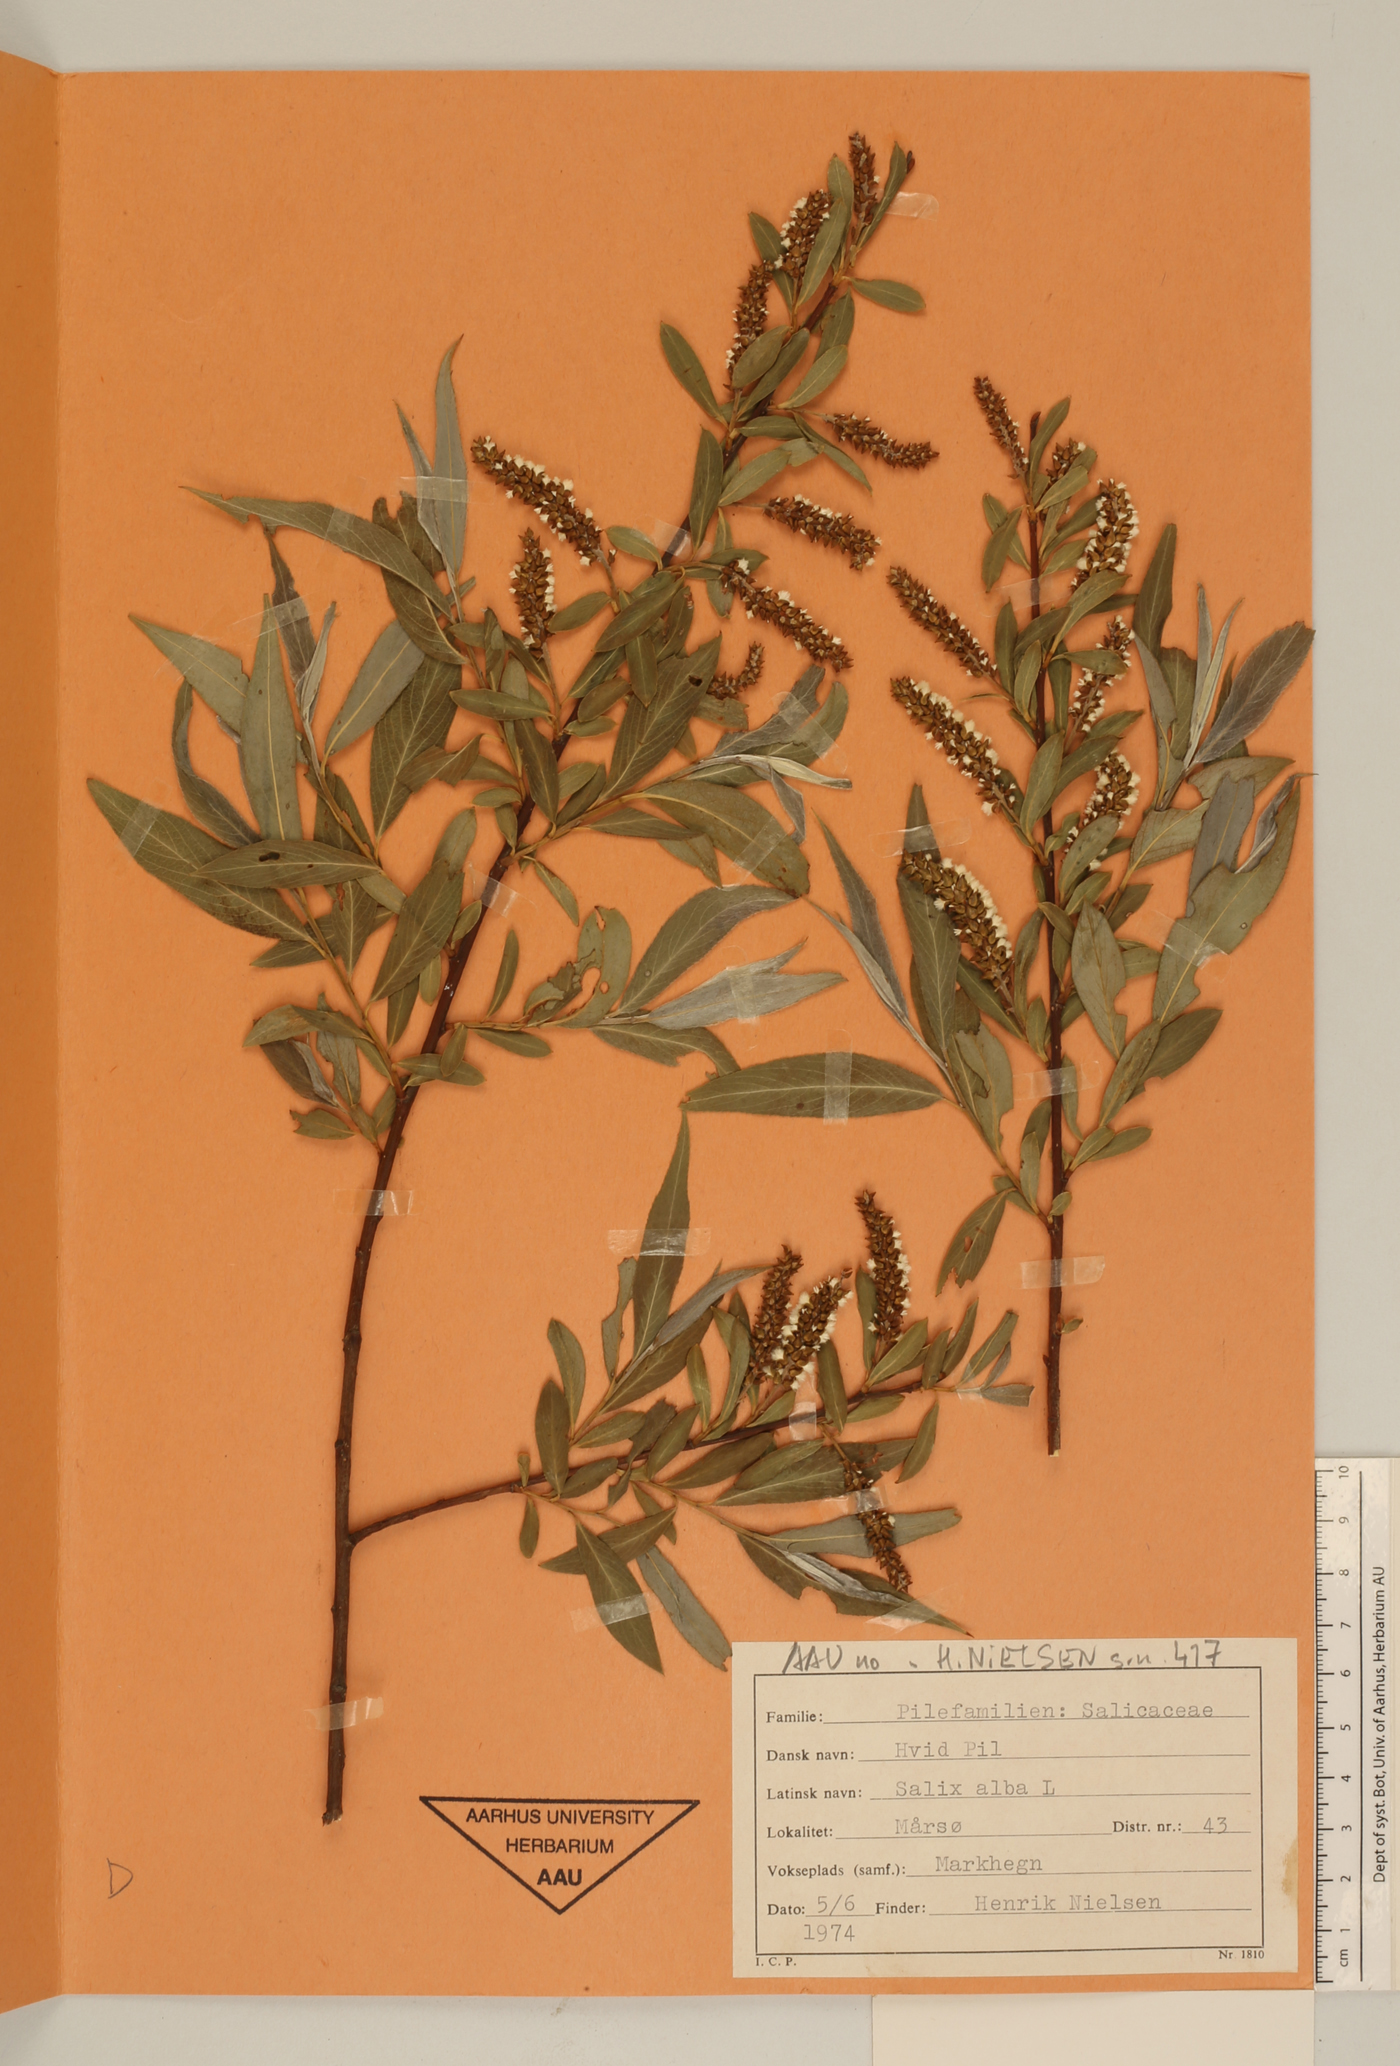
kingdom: Plantae
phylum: Tracheophyta
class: Magnoliopsida
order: Malpighiales
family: Salicaceae
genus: Salix
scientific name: Salix alba
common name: White willow
